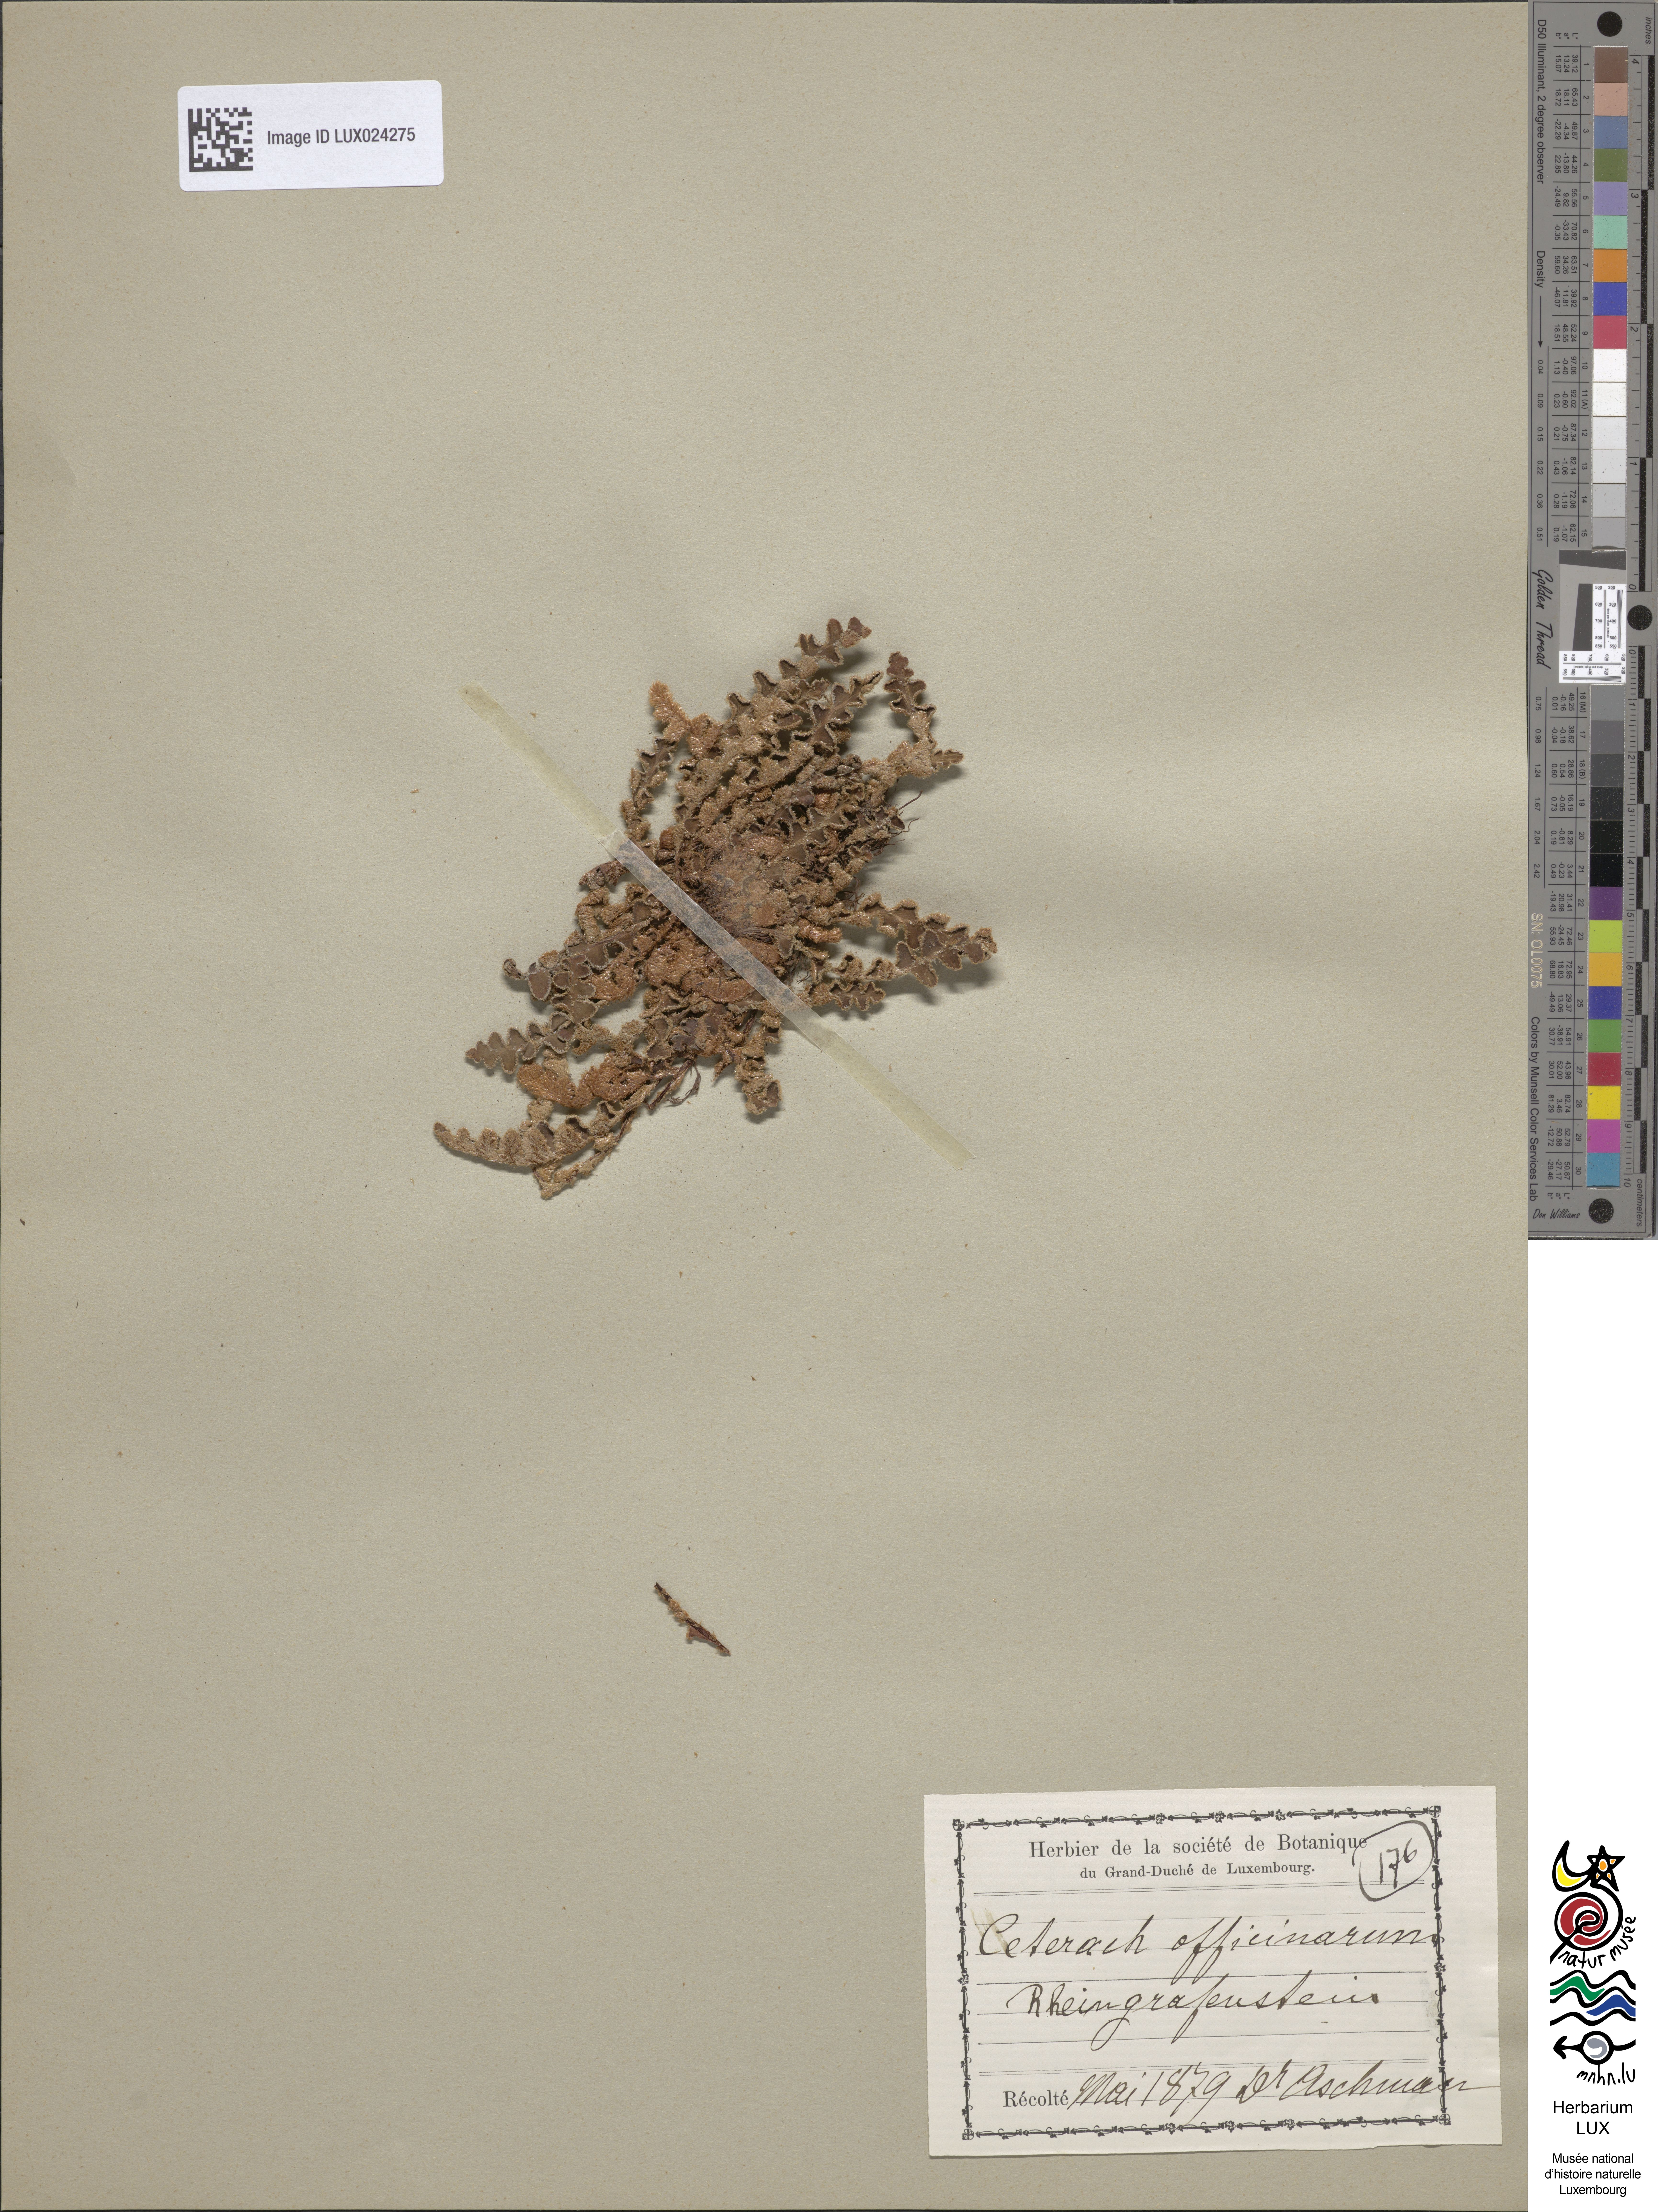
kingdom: Plantae
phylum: Tracheophyta
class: Polypodiopsida
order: Polypodiales
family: Aspleniaceae
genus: Asplenium
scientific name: Asplenium ceterach
